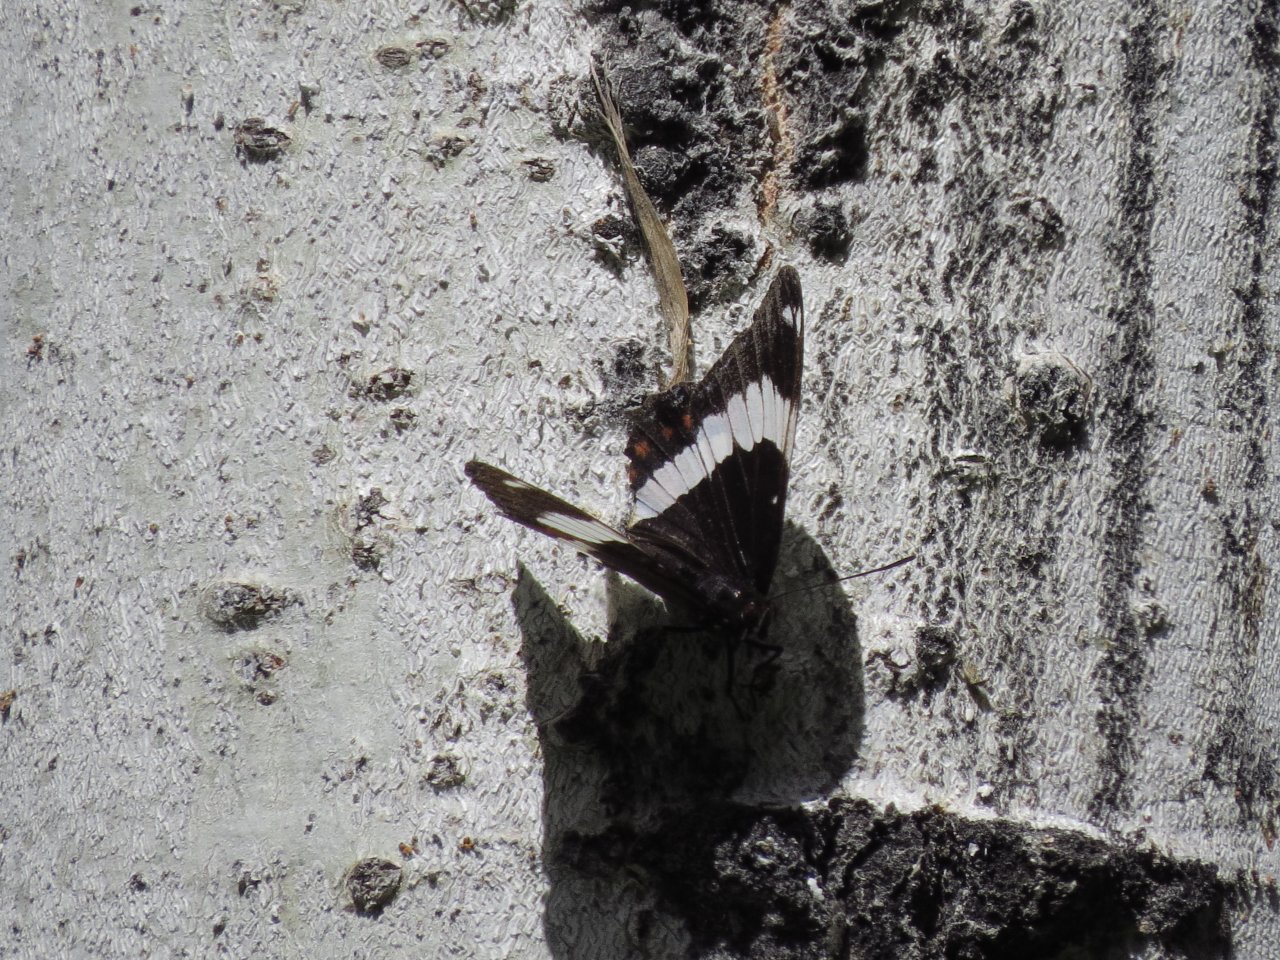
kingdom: Animalia
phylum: Arthropoda
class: Insecta
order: Lepidoptera
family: Nymphalidae
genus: Limenitis
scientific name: Limenitis arthemis
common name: Red-spotted Admiral
